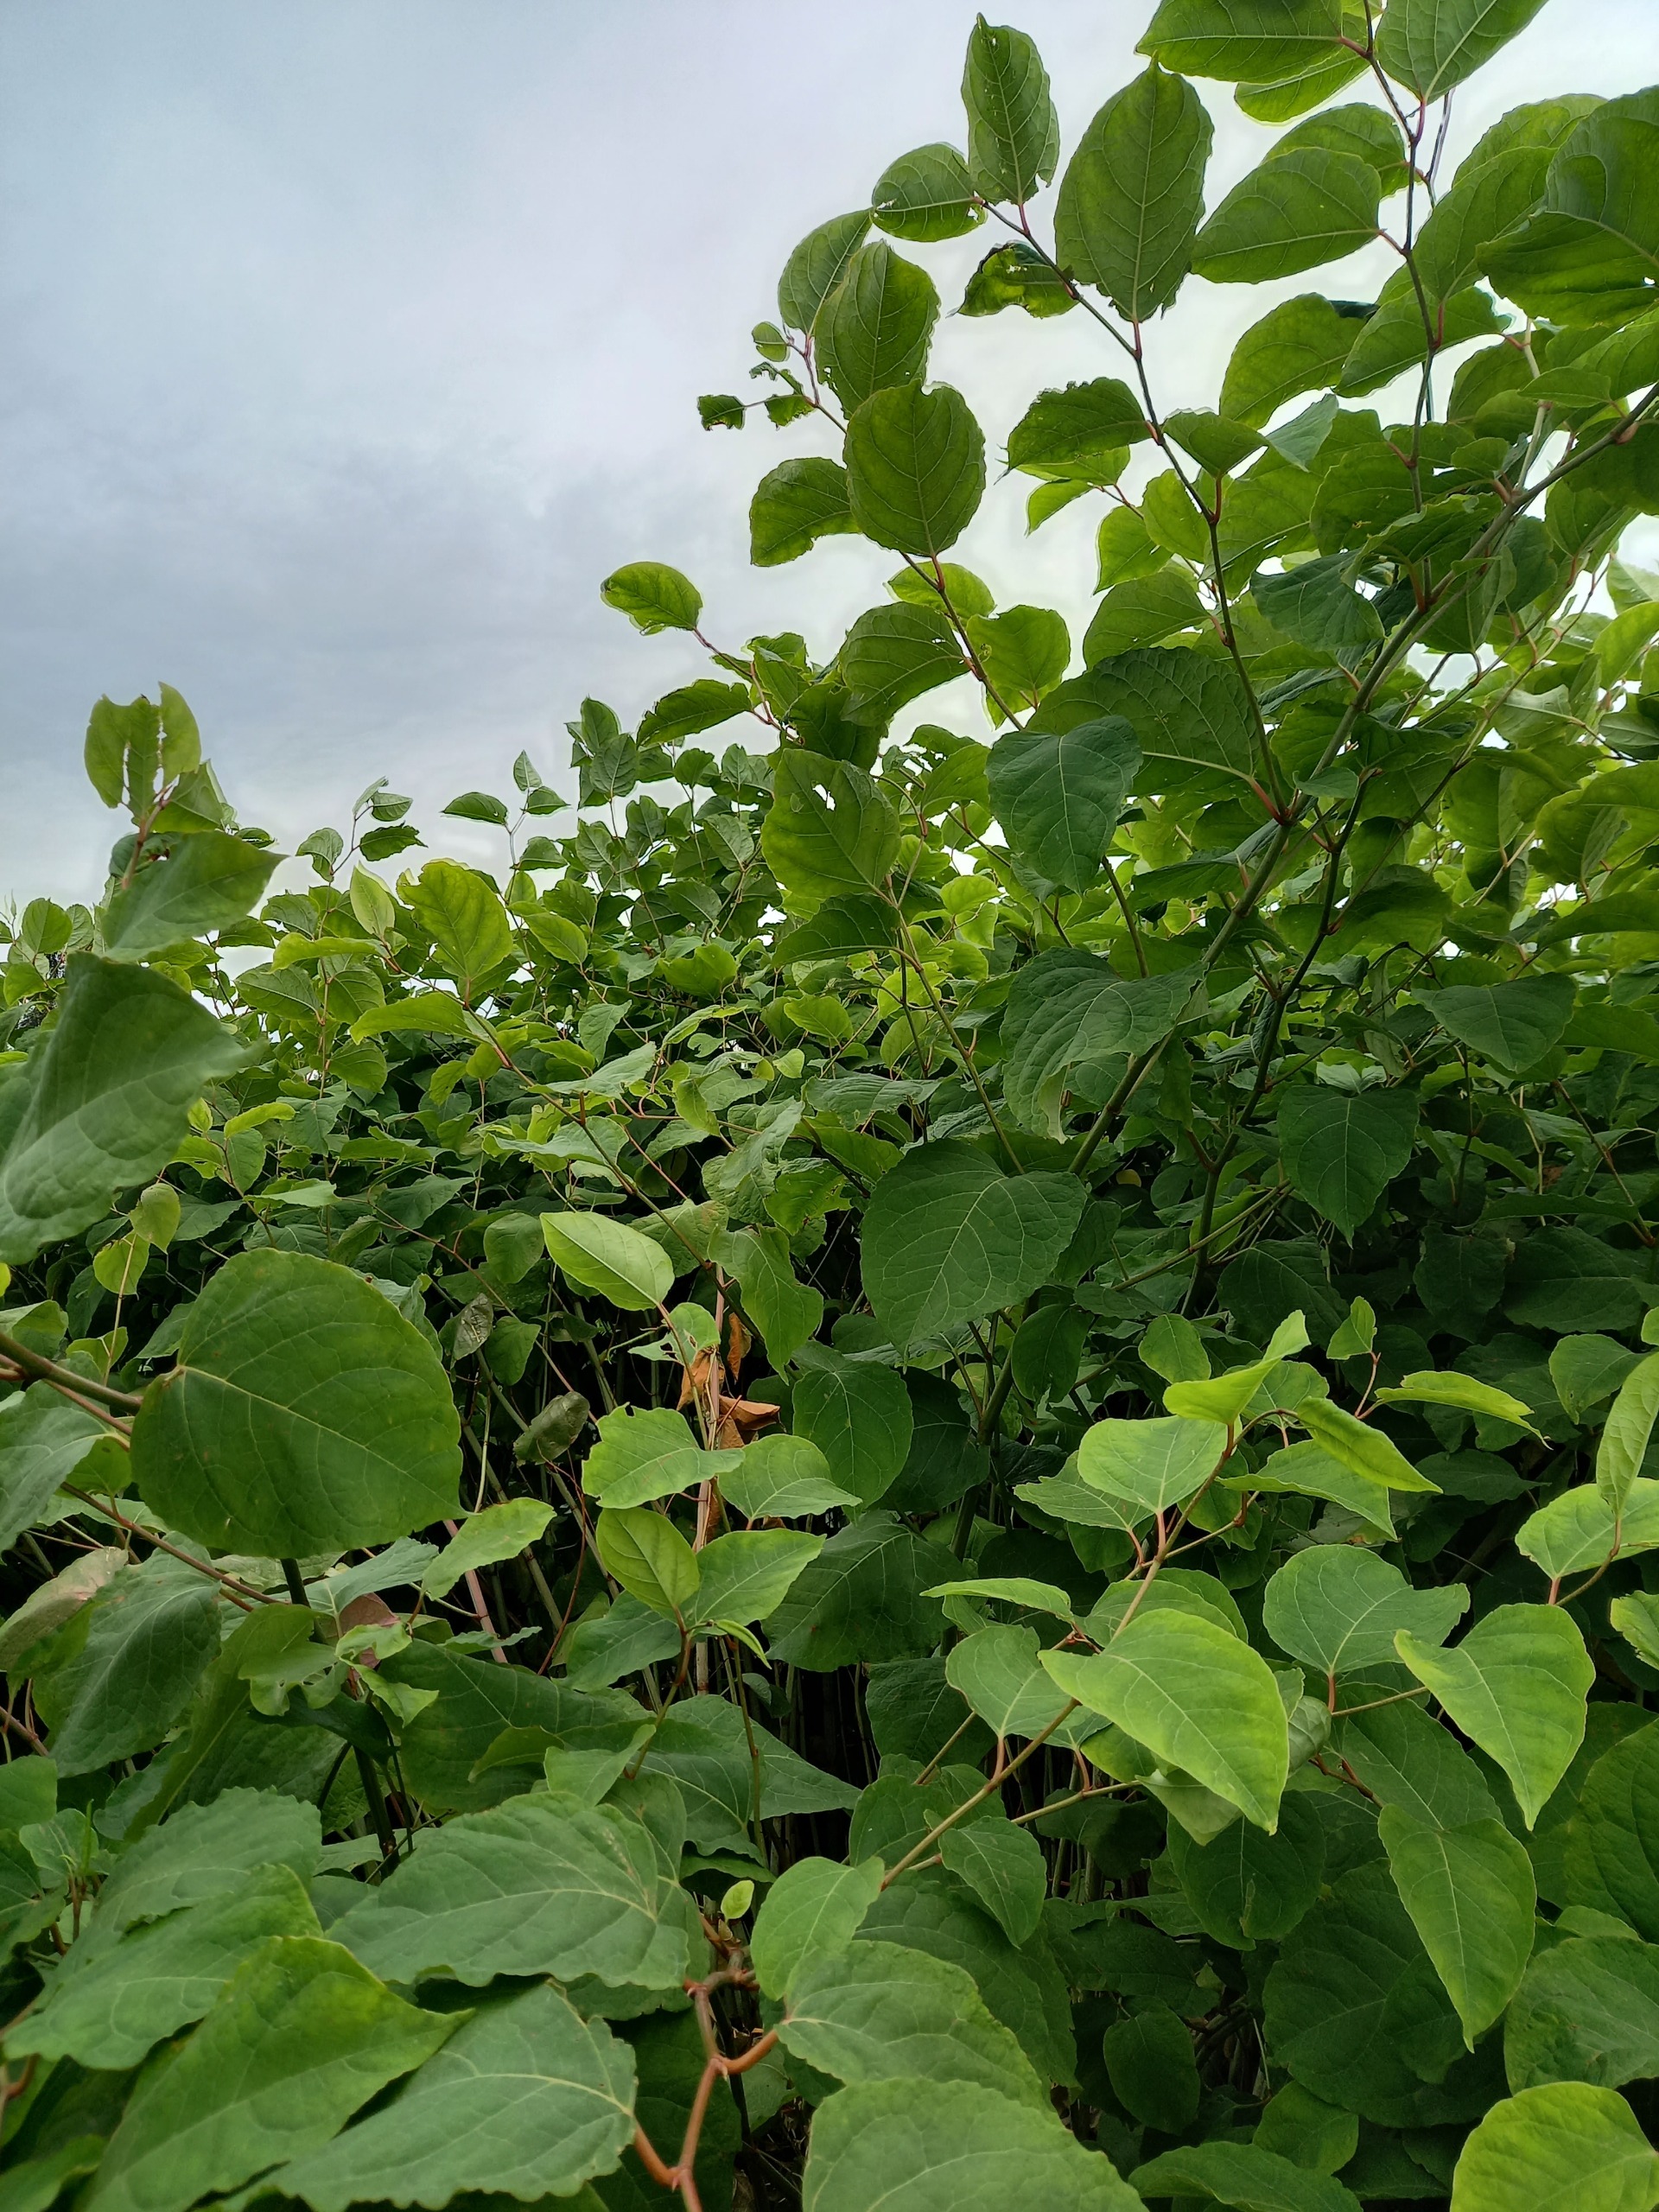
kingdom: Plantae
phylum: Tracheophyta
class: Magnoliopsida
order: Caryophyllales
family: Polygonaceae
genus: Reynoutria
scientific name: Reynoutria
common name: Pileurt (Reynoutria-slægten)
